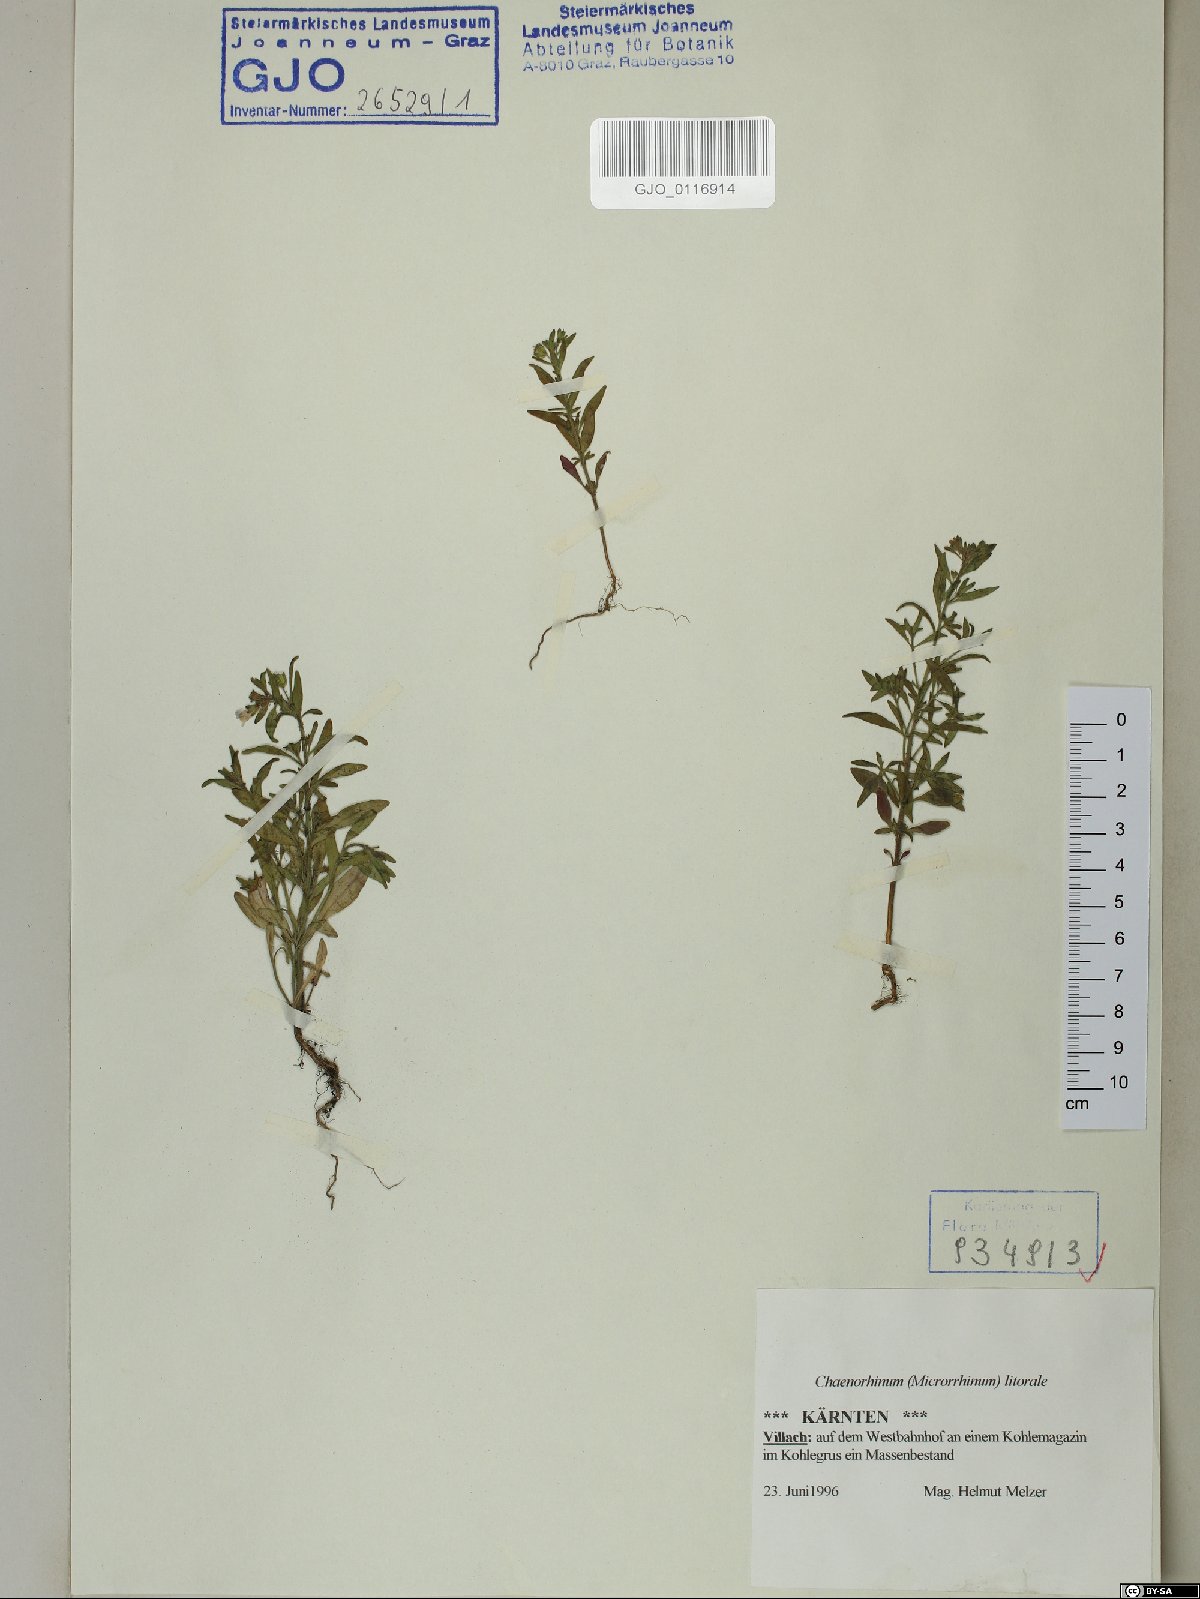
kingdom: Plantae
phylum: Tracheophyta
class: Magnoliopsida
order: Lamiales
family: Plantaginaceae
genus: Chaenorhinum
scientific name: Chaenorhinum litorale
